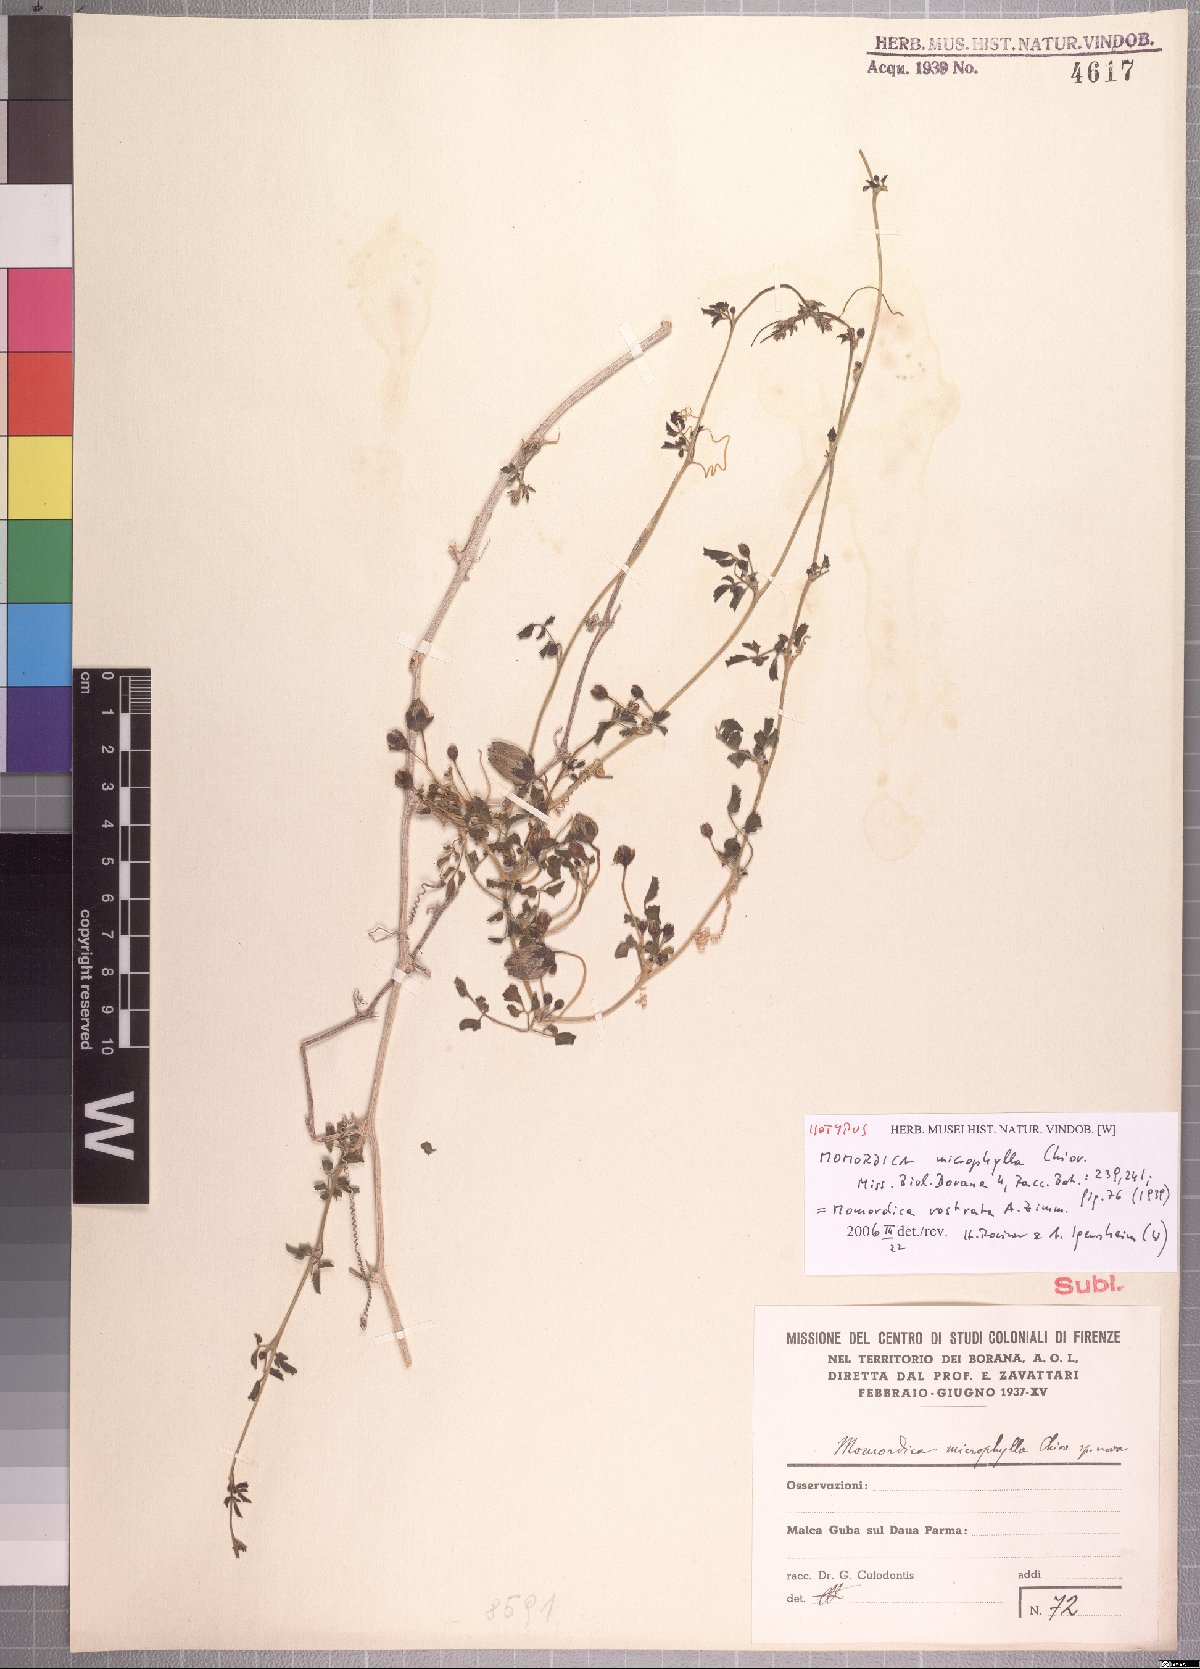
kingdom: Plantae
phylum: Tracheophyta
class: Magnoliopsida
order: Cucurbitales
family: Cucurbitaceae
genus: Momordica
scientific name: Momordica rostrata
